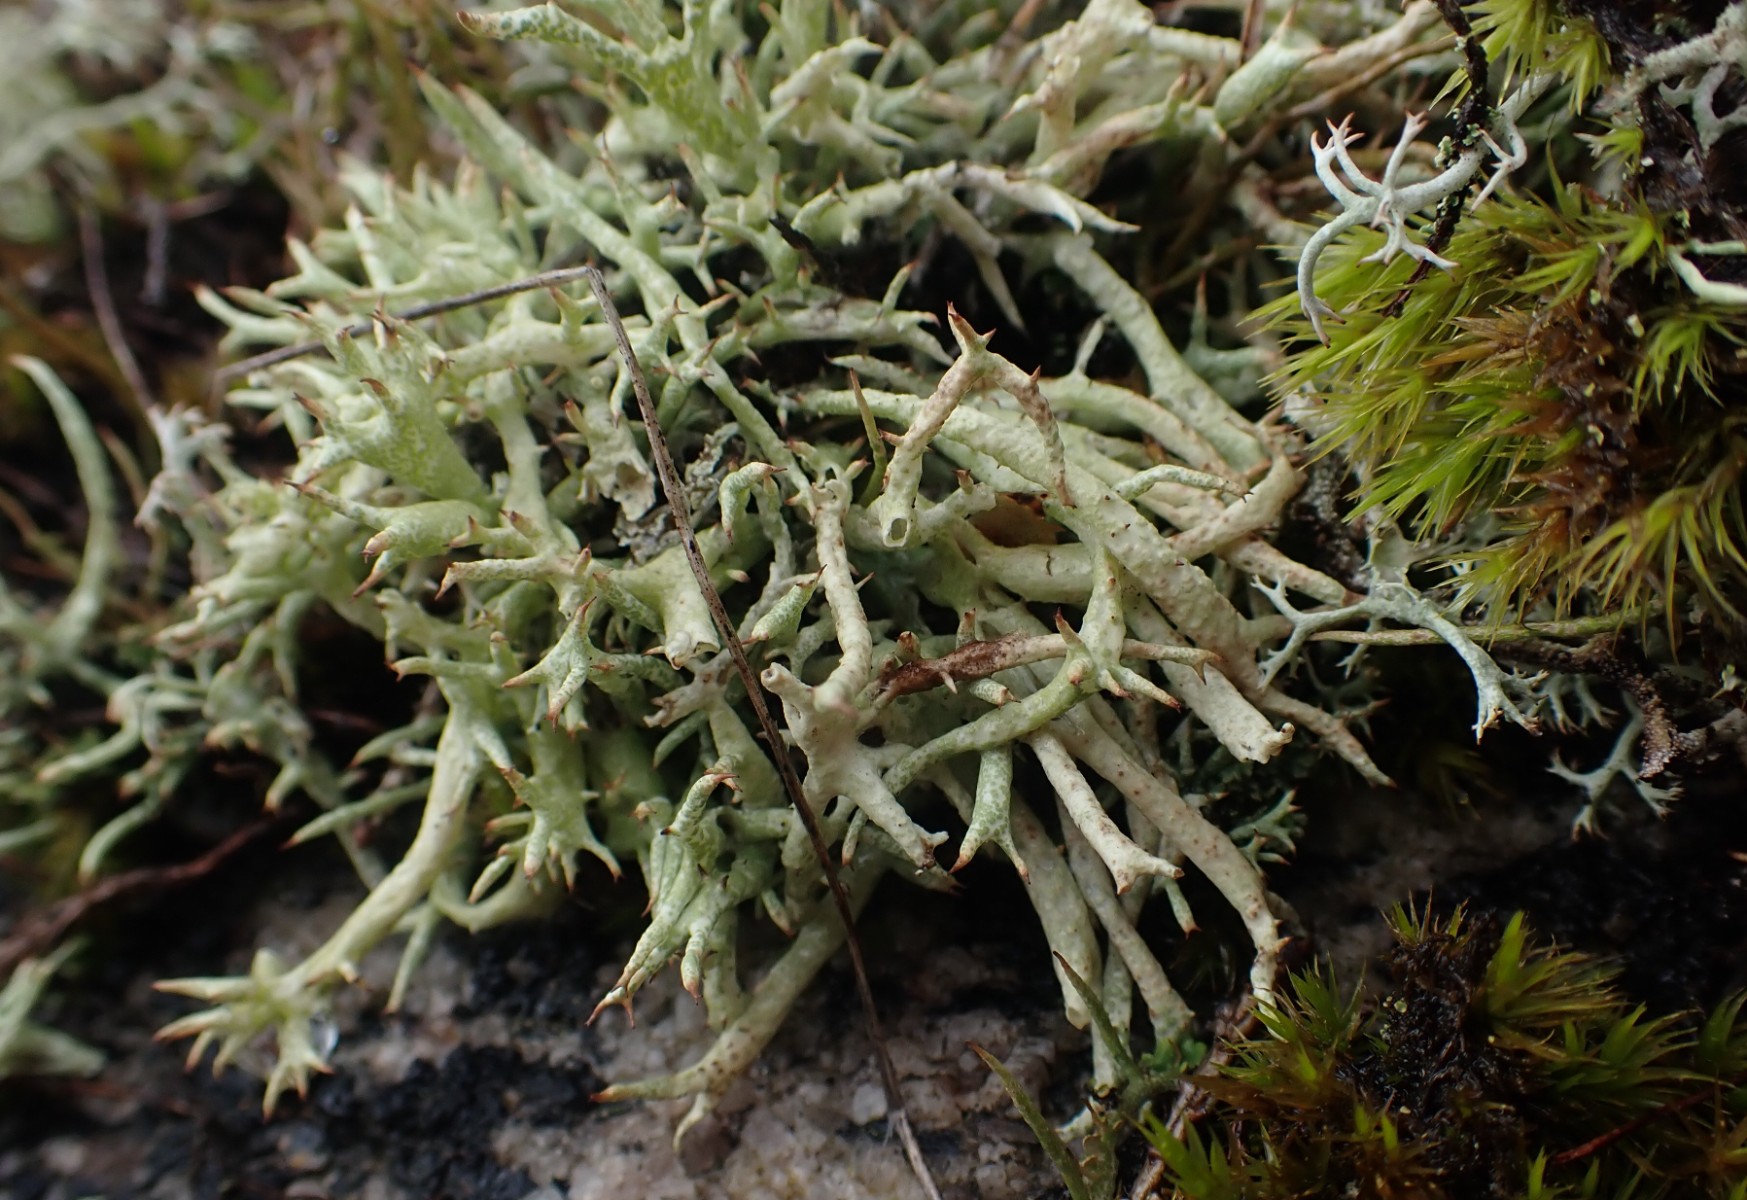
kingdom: Fungi
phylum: Ascomycota
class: Lecanoromycetes
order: Lecanorales
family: Cladoniaceae
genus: Cladonia
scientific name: Cladonia uncialis
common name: pigget bægerlav
